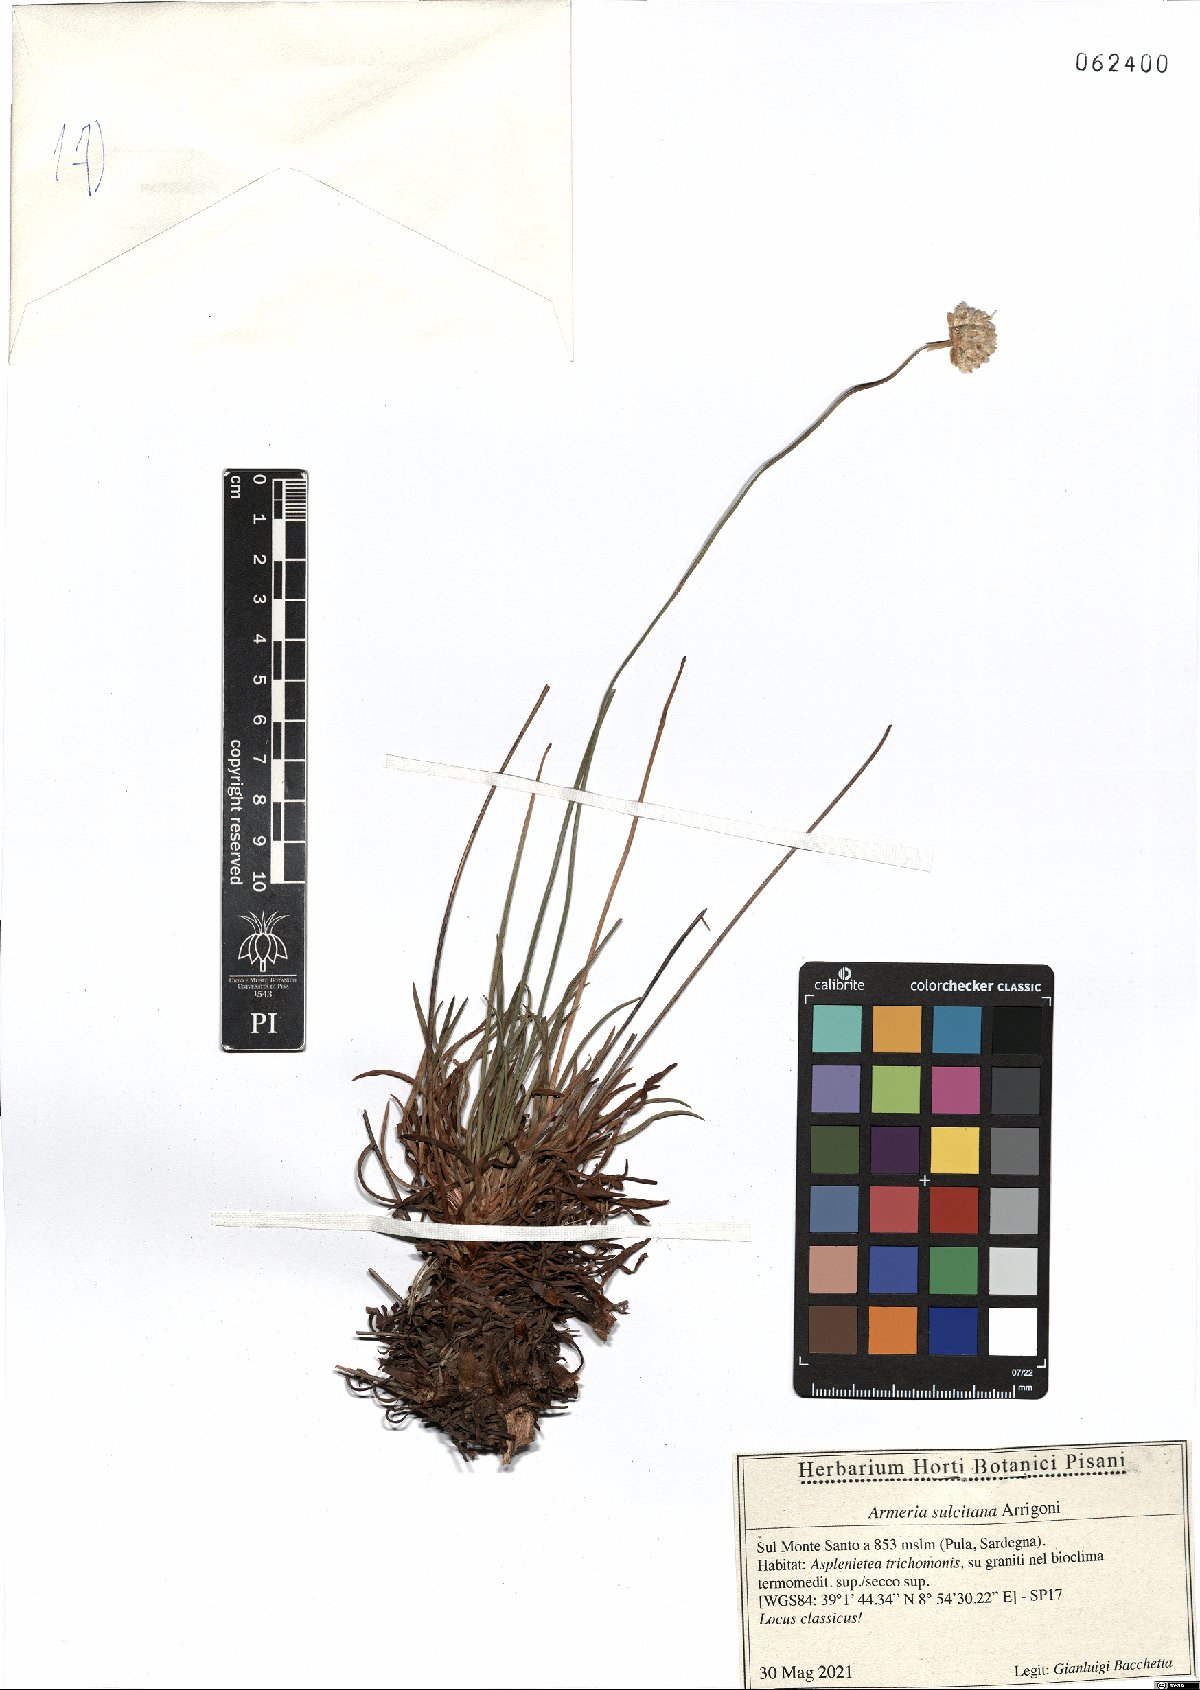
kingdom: Plantae
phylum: Tracheophyta
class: Magnoliopsida
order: Caryophyllales
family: Plumbaginaceae
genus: Armeria
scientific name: Armeria sulcitana
